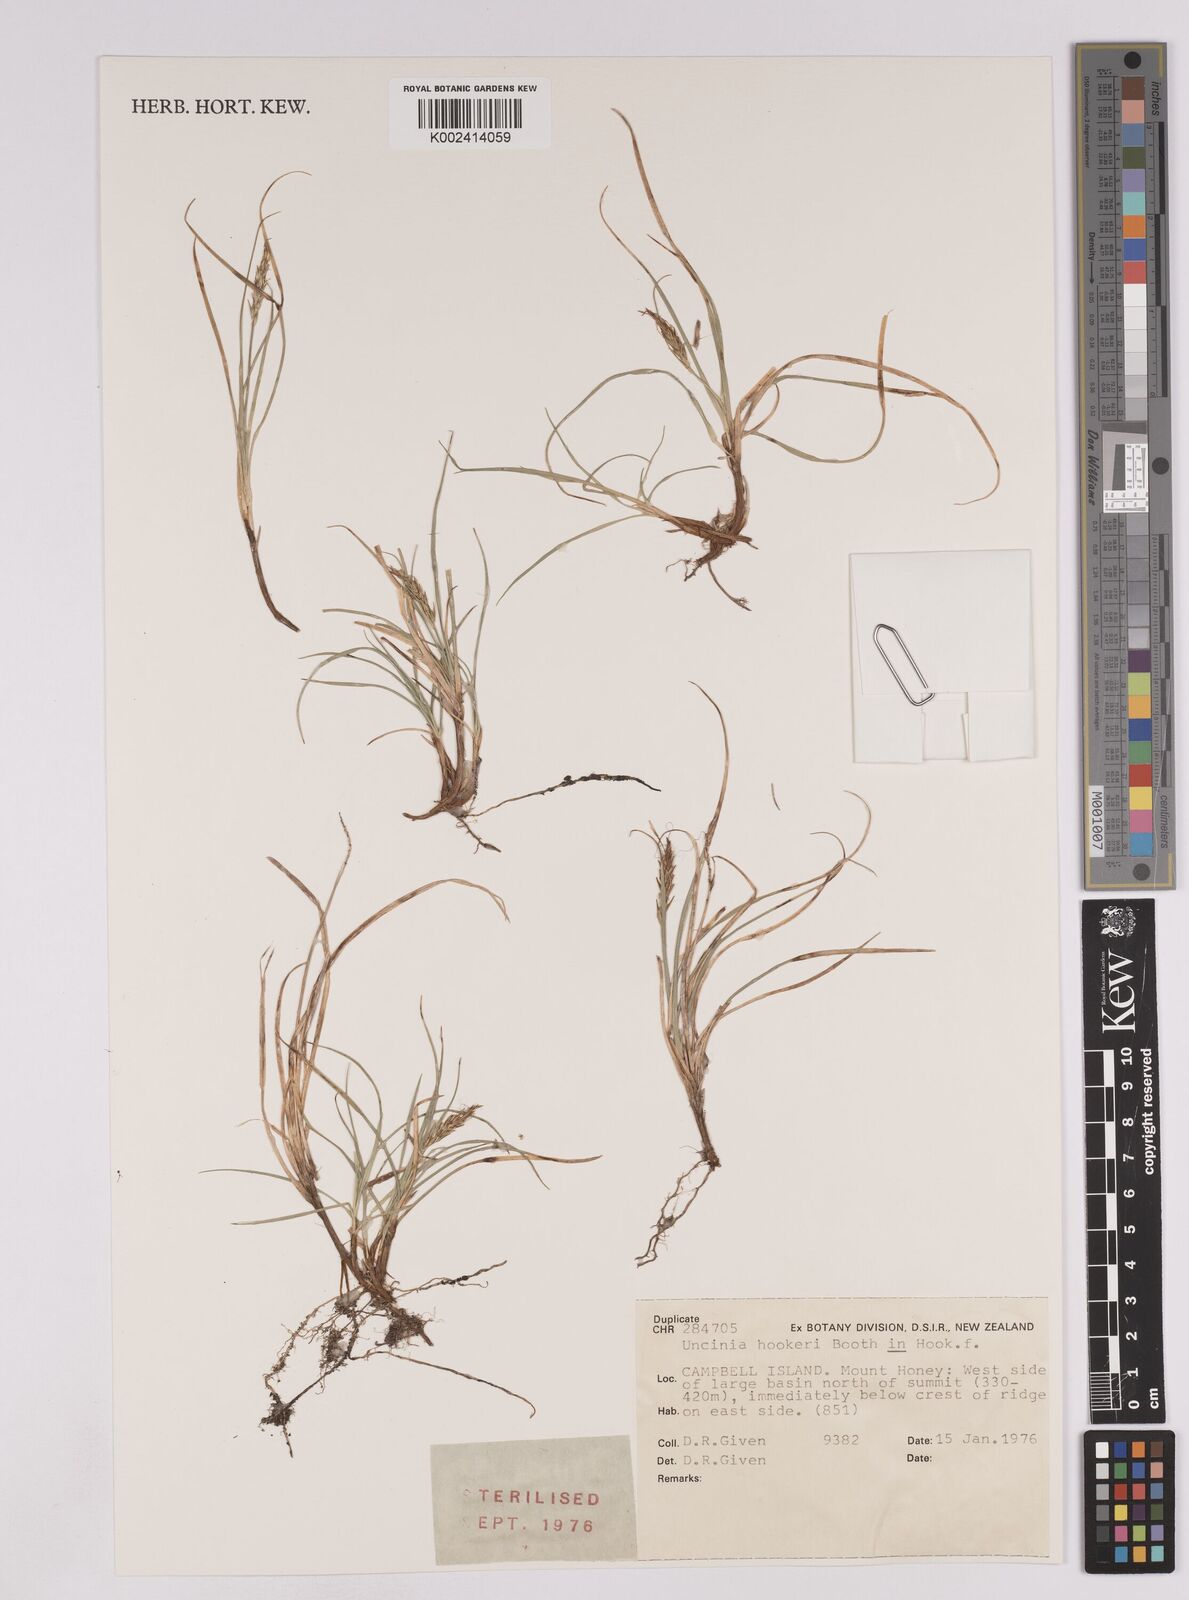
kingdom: Plantae
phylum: Tracheophyta
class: Liliopsida
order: Poales
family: Cyperaceae
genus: Carex
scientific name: Carex austrocompacta
